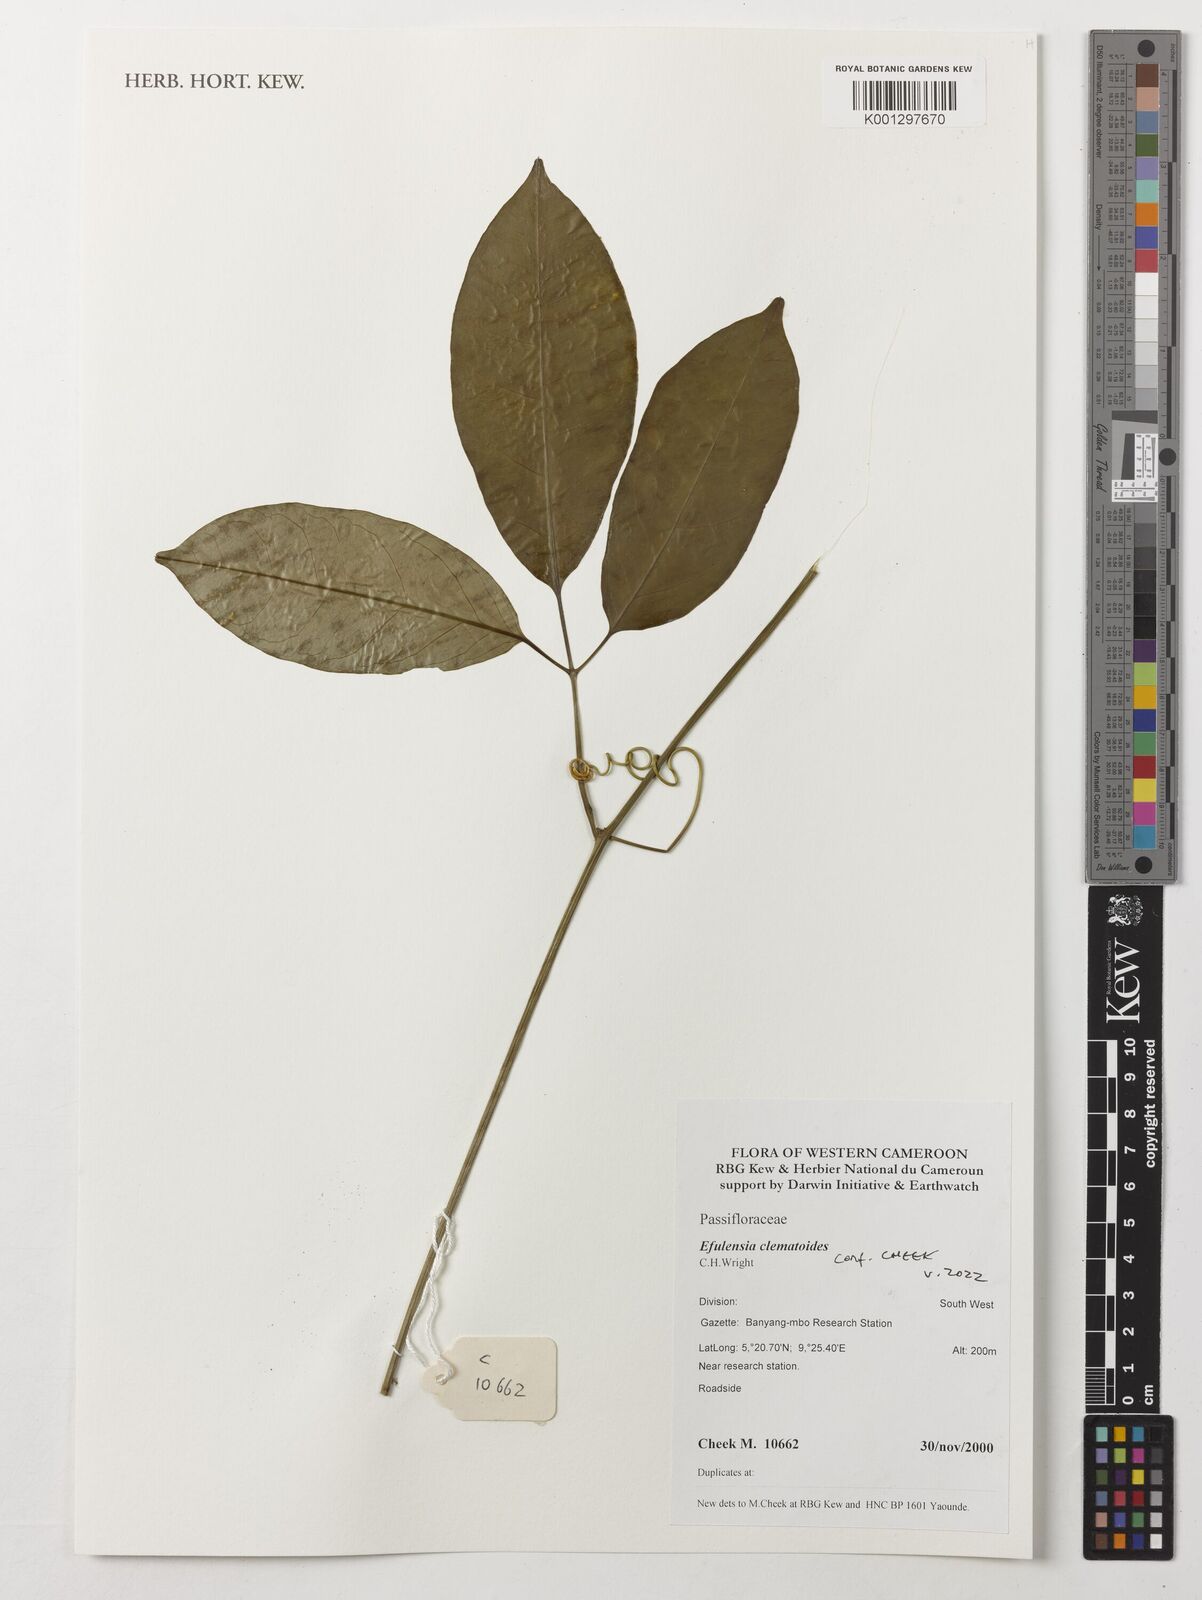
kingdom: Plantae
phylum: Tracheophyta
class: Magnoliopsida
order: Malpighiales
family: Passifloraceae
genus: Efulensia
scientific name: Efulensia clematoides
